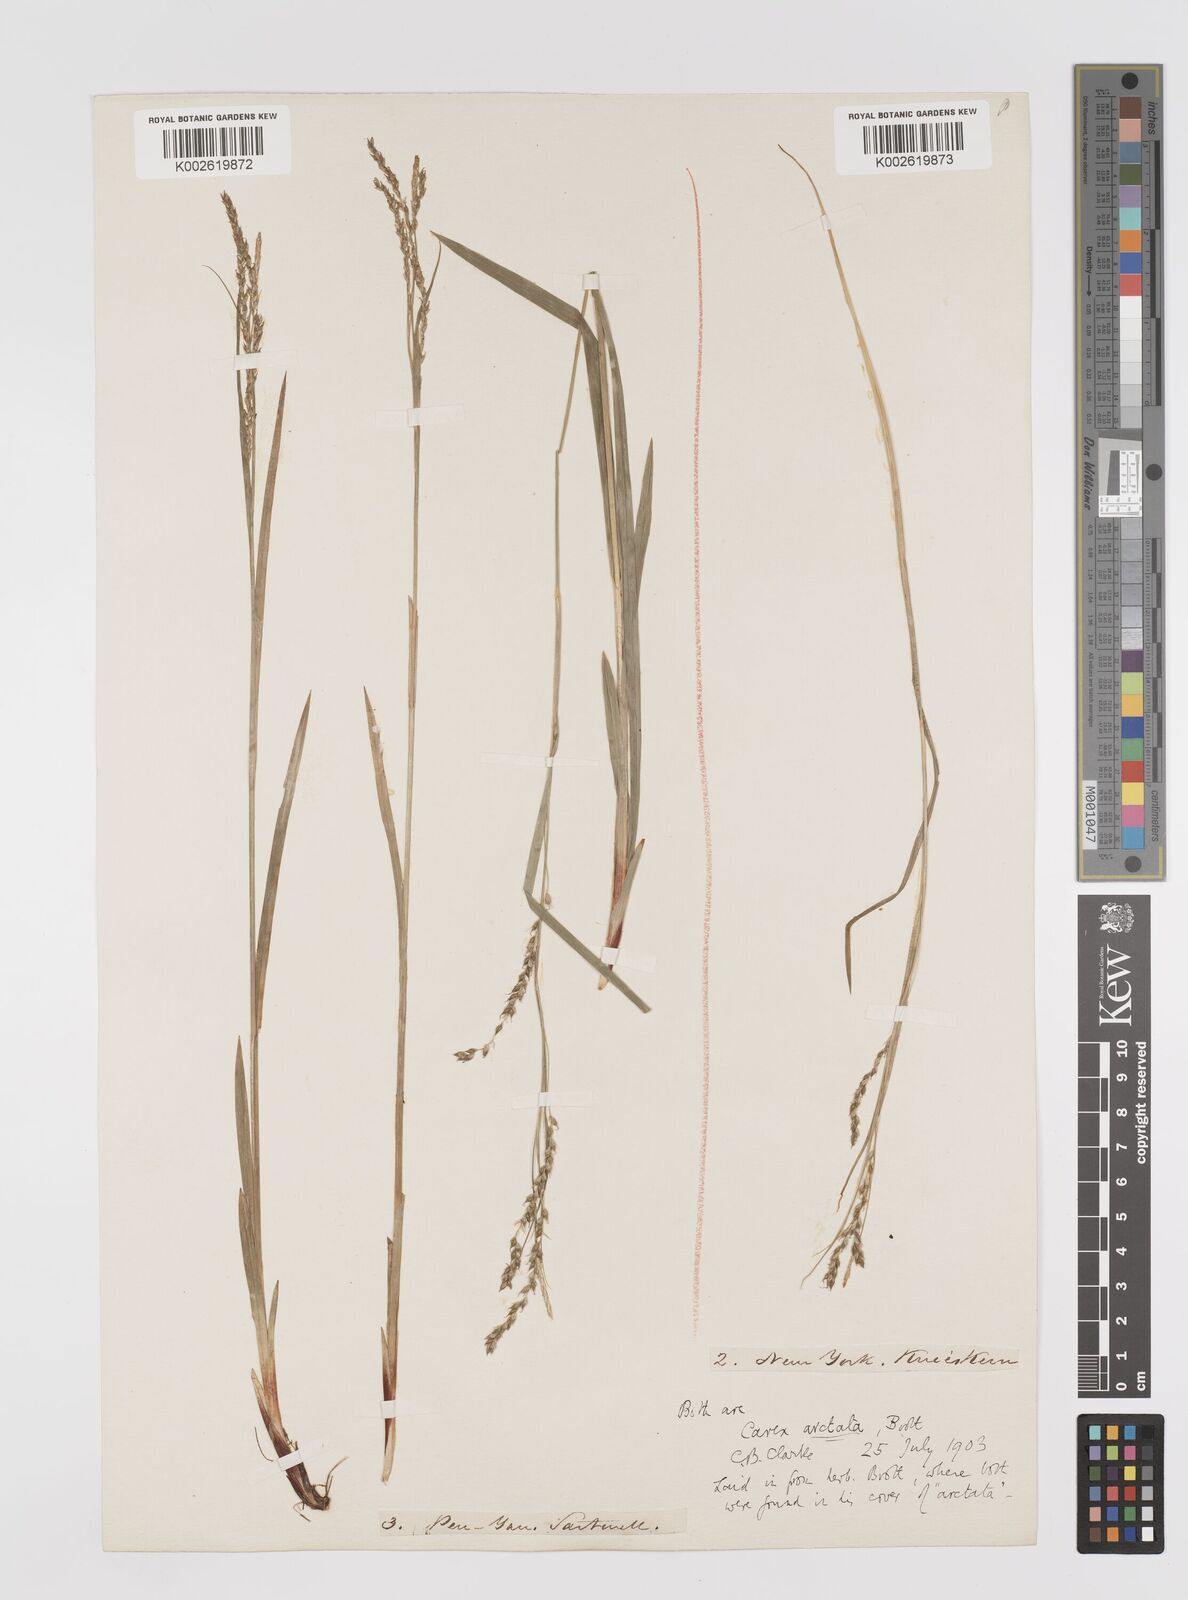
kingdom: Plantae
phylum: Tracheophyta
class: Liliopsida
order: Poales
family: Cyperaceae
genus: Carex
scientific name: Carex arctata
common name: Black sedge
